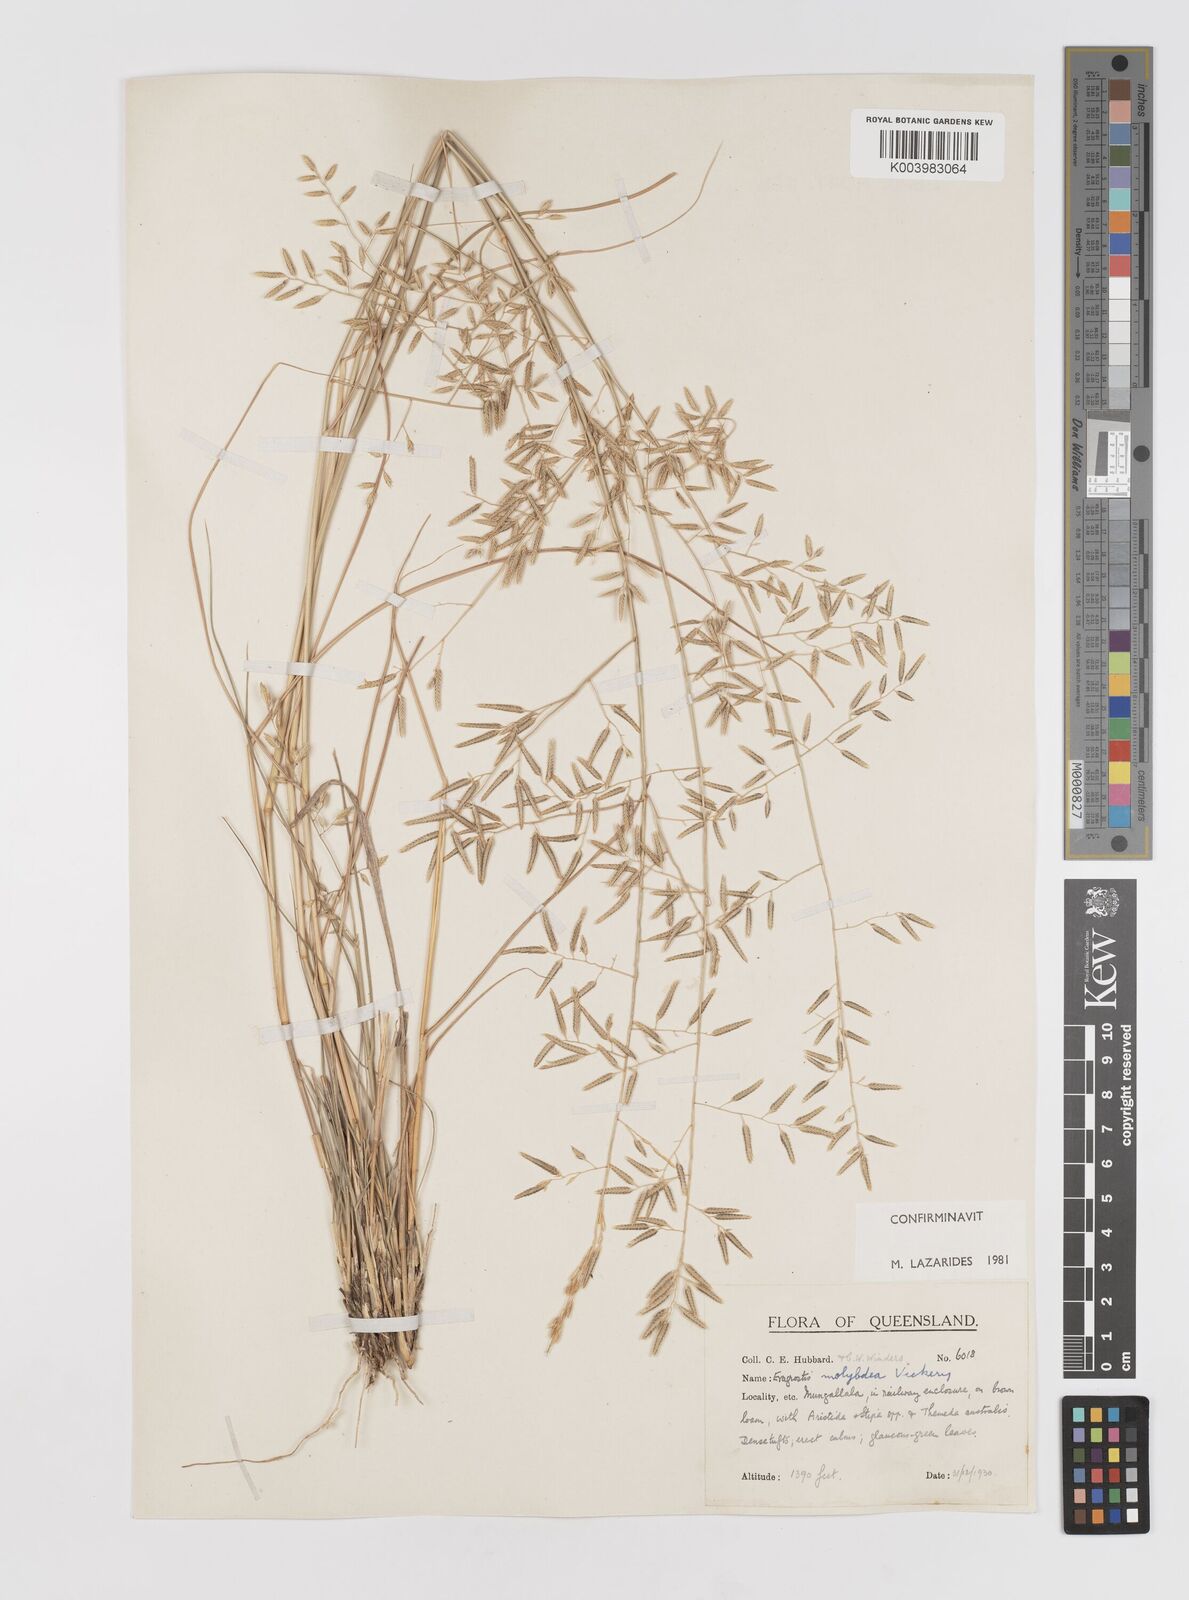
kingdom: Plantae
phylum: Tracheophyta
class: Liliopsida
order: Poales
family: Poaceae
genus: Eragrostis
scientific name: Eragrostis leptostachya
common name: Australian lovegrass
